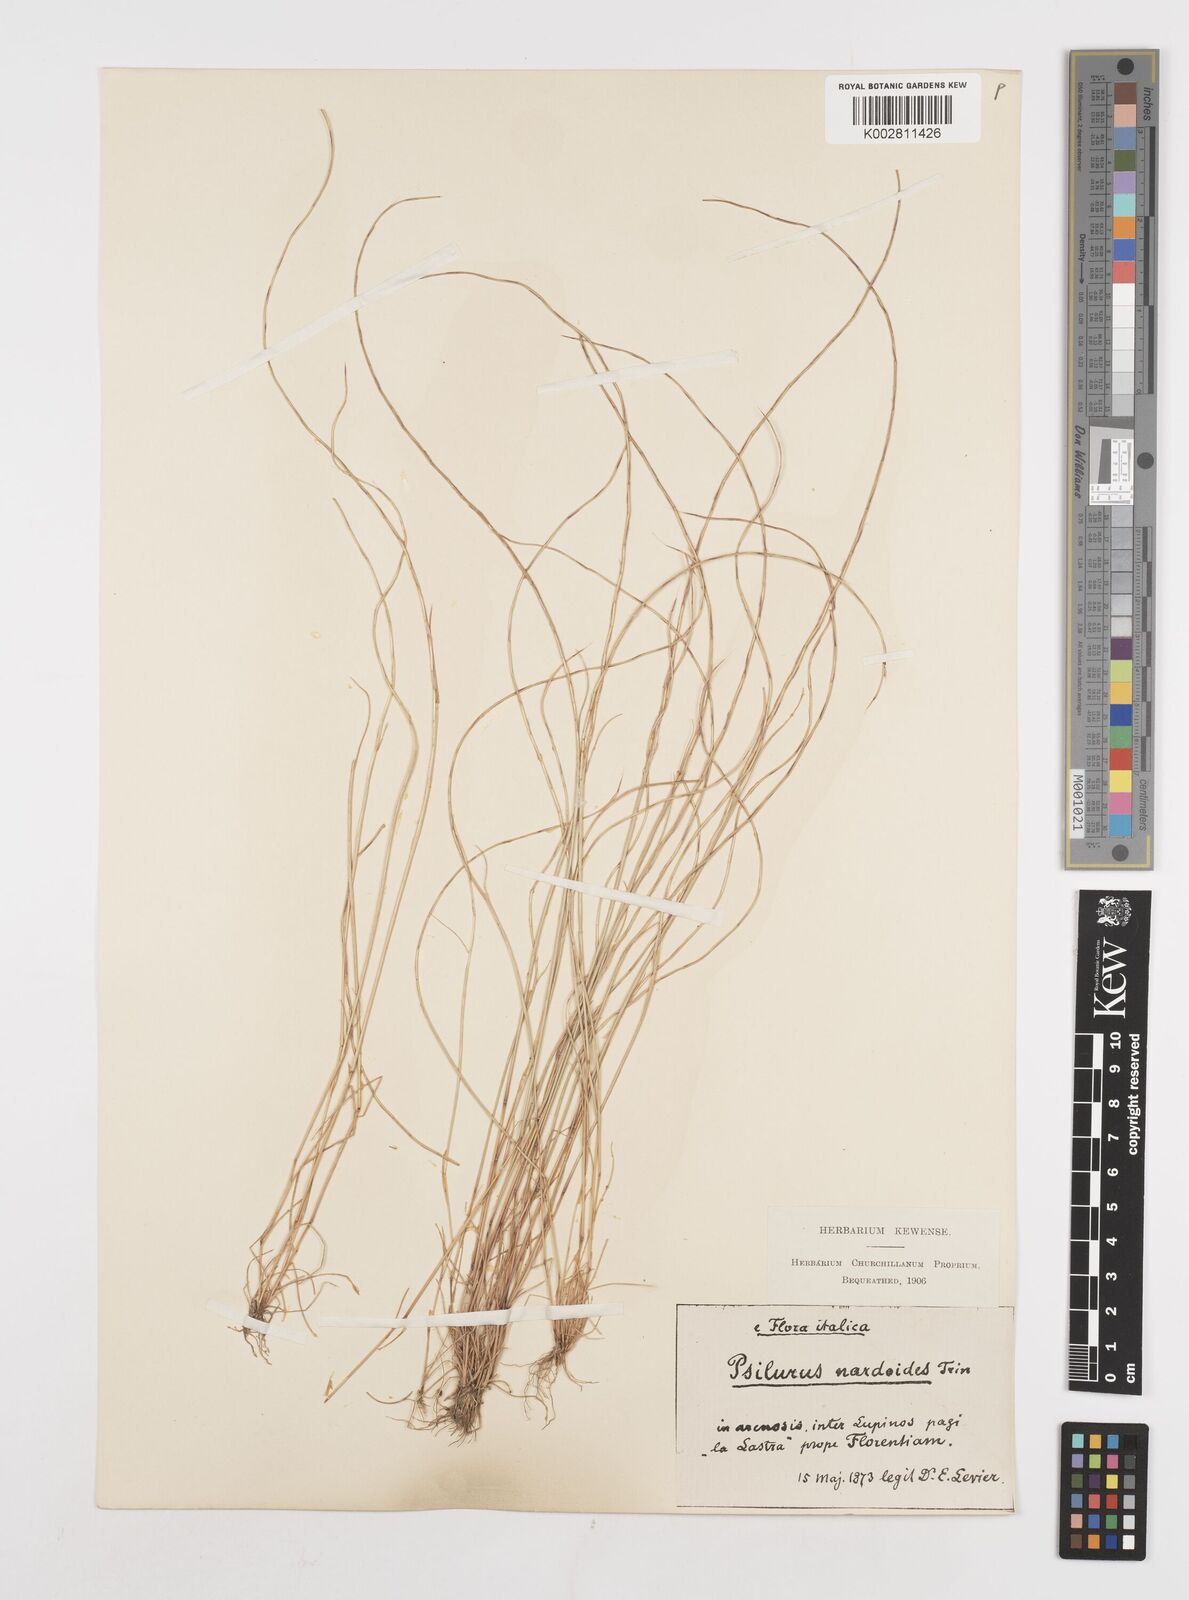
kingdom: Plantae
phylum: Tracheophyta
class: Liliopsida
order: Poales
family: Poaceae
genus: Festuca
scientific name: Festuca incurva
